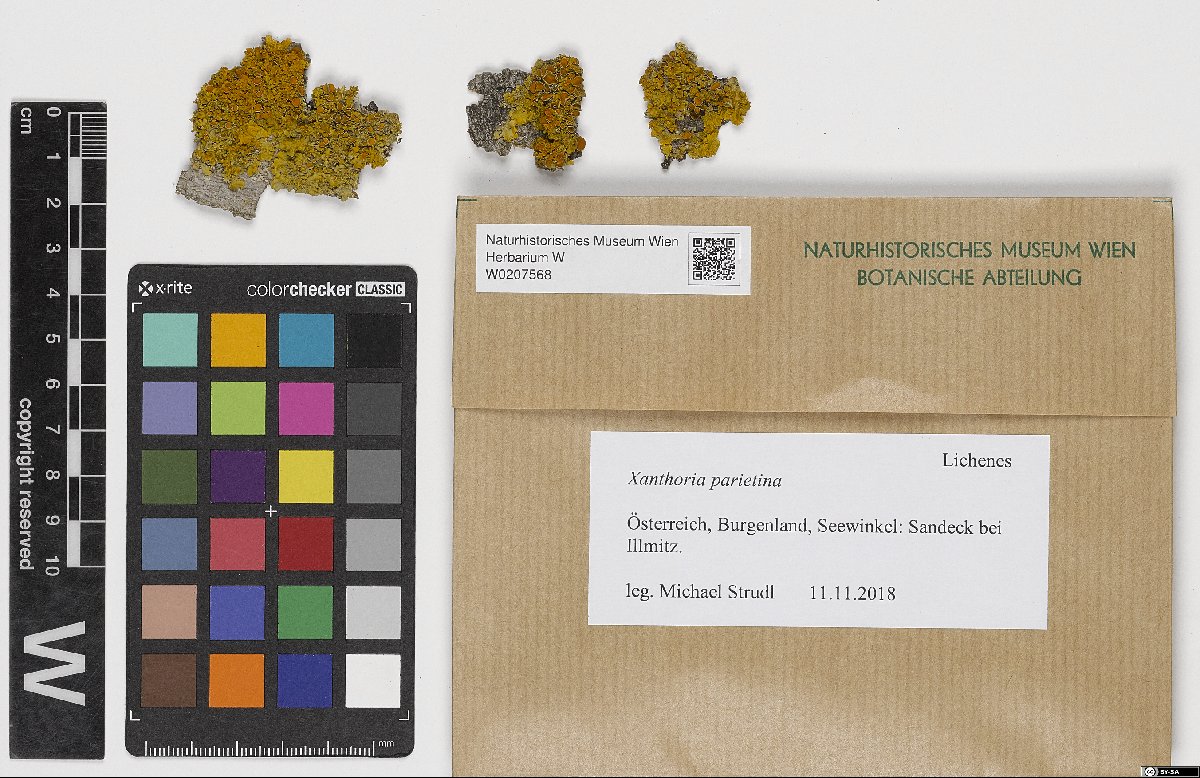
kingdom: Fungi
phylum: Ascomycota
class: Lecanoromycetes
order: Teloschistales
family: Teloschistaceae
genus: Xanthoria
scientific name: Xanthoria parietina
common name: Common orange lichen
